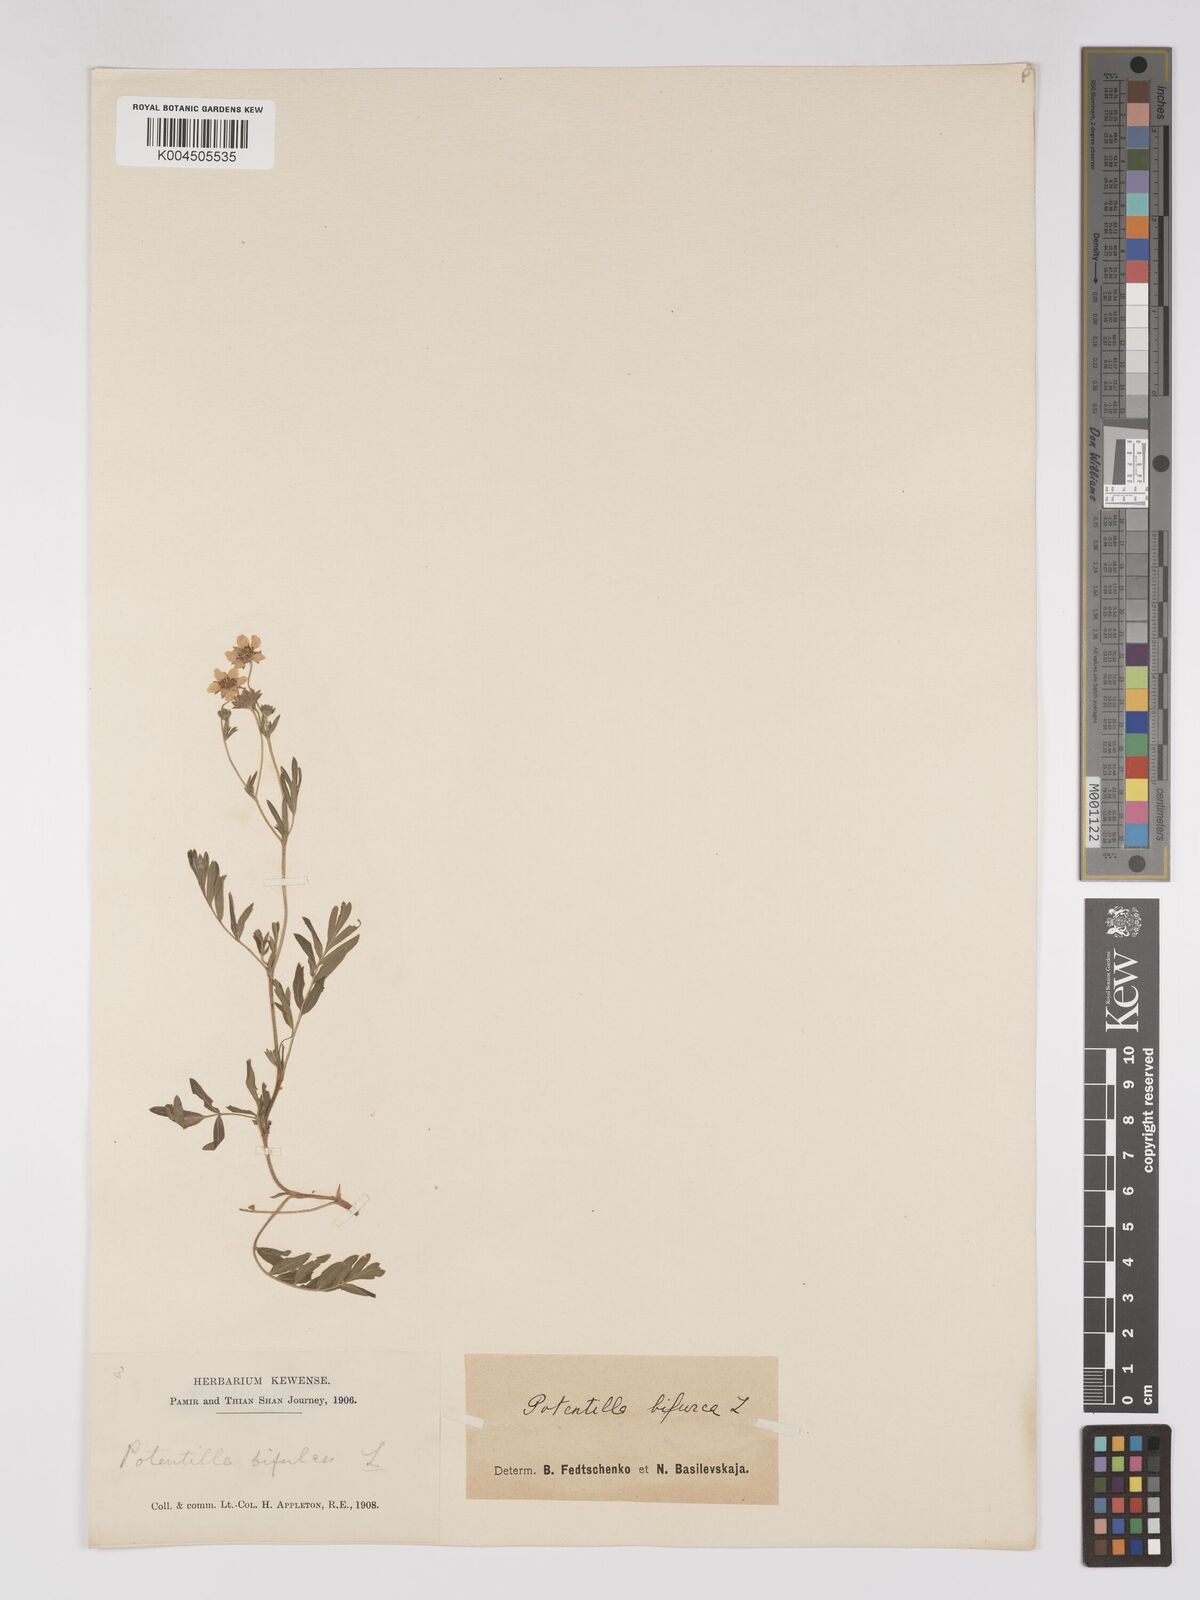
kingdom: Plantae
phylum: Tracheophyta
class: Magnoliopsida
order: Rosales
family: Rosaceae
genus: Sibbaldianthe
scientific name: Sibbaldianthe bifurca
